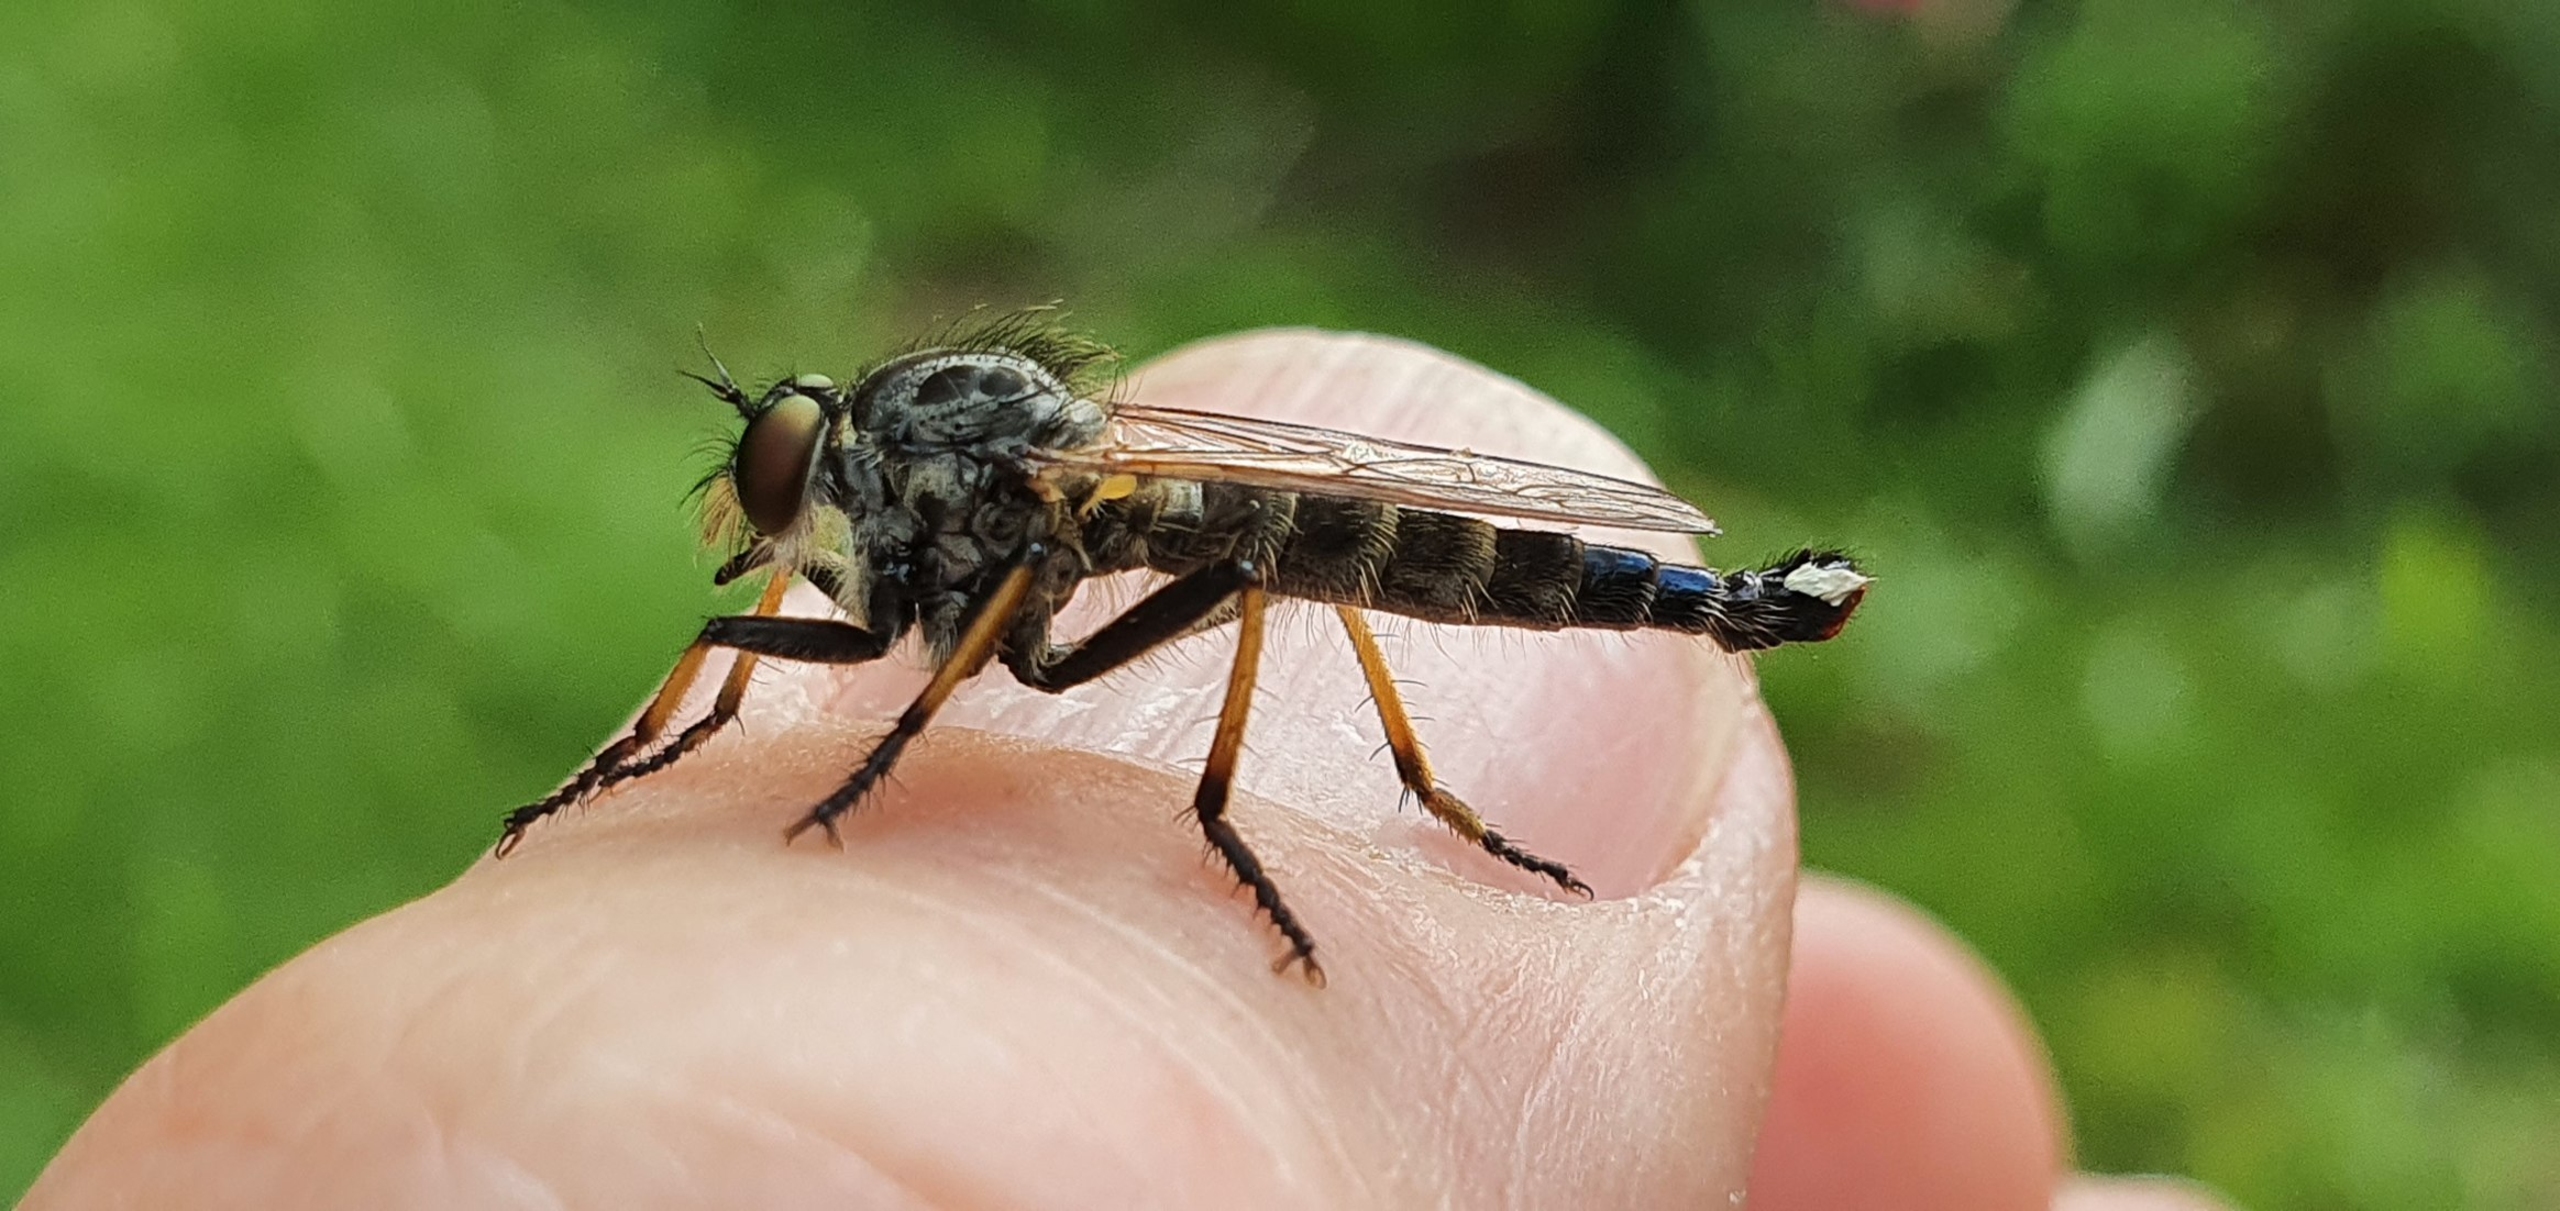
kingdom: Animalia
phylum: Arthropoda
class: Insecta
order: Diptera
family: Asilidae
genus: Neoitamus
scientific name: Neoitamus cyanurus
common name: Sortfodet skovrovflue
